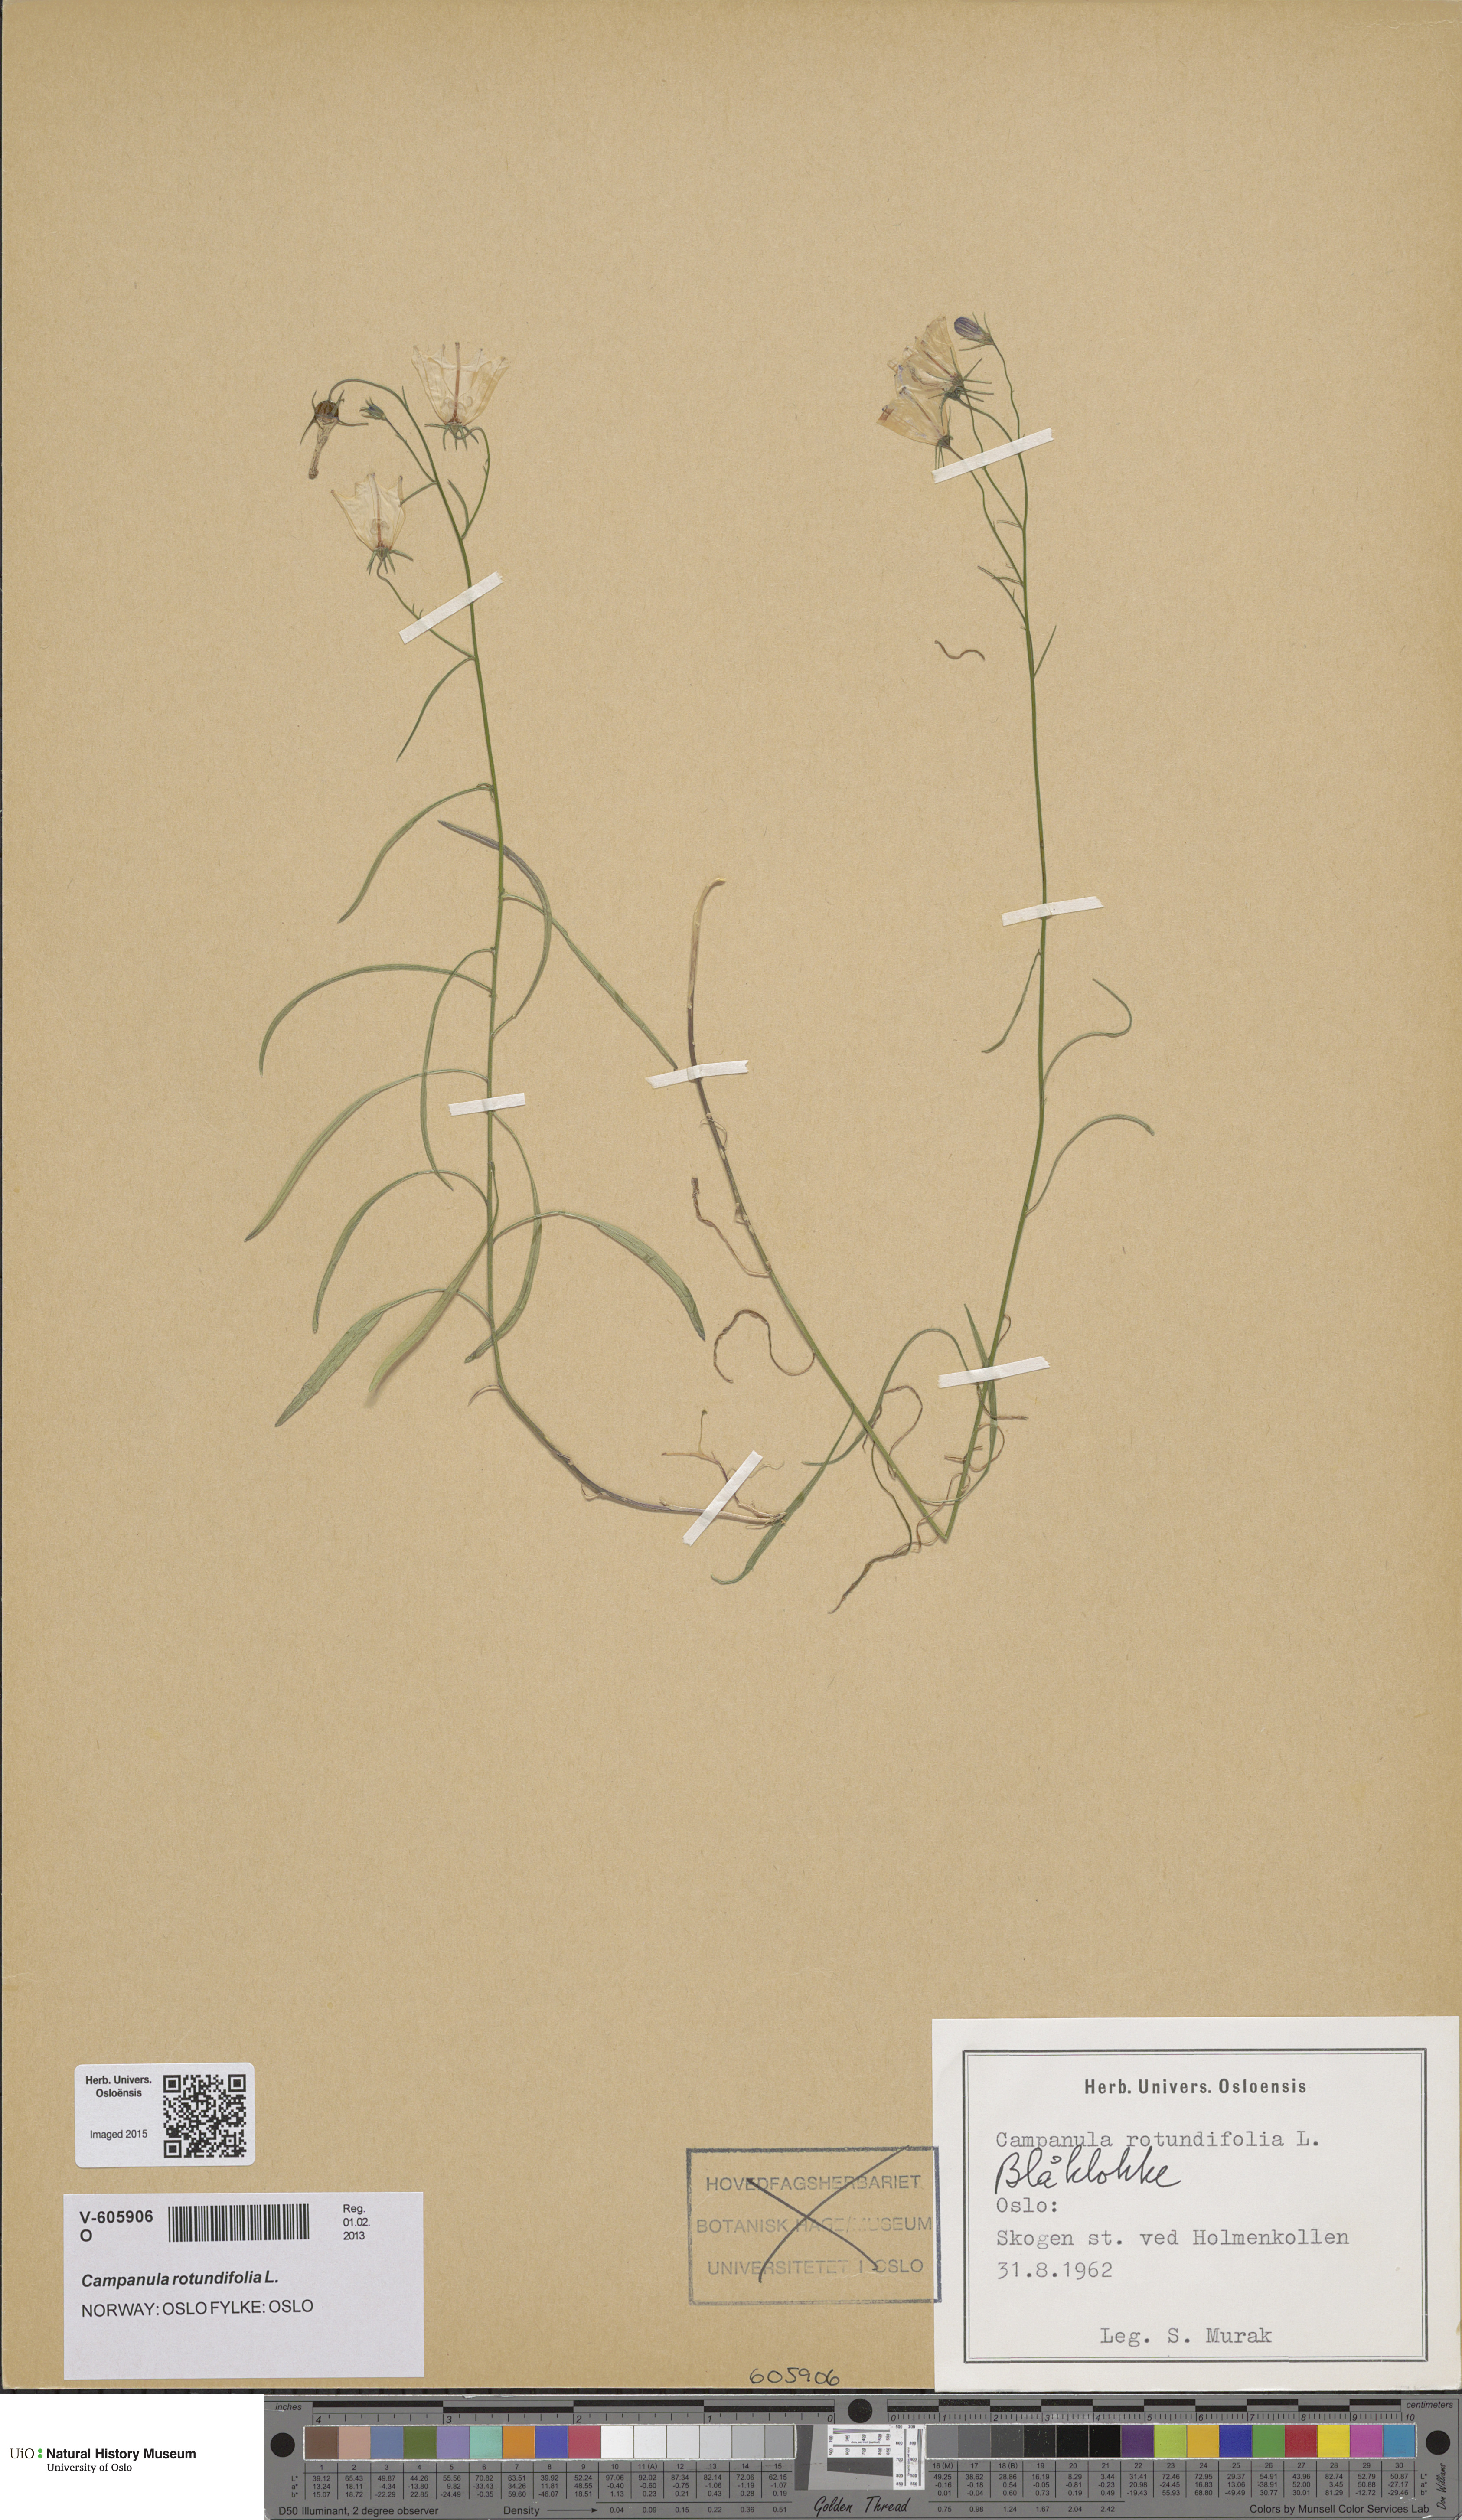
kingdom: Plantae
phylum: Tracheophyta
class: Magnoliopsida
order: Asterales
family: Campanulaceae
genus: Campanula
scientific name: Campanula rotundifolia
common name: Harebell
